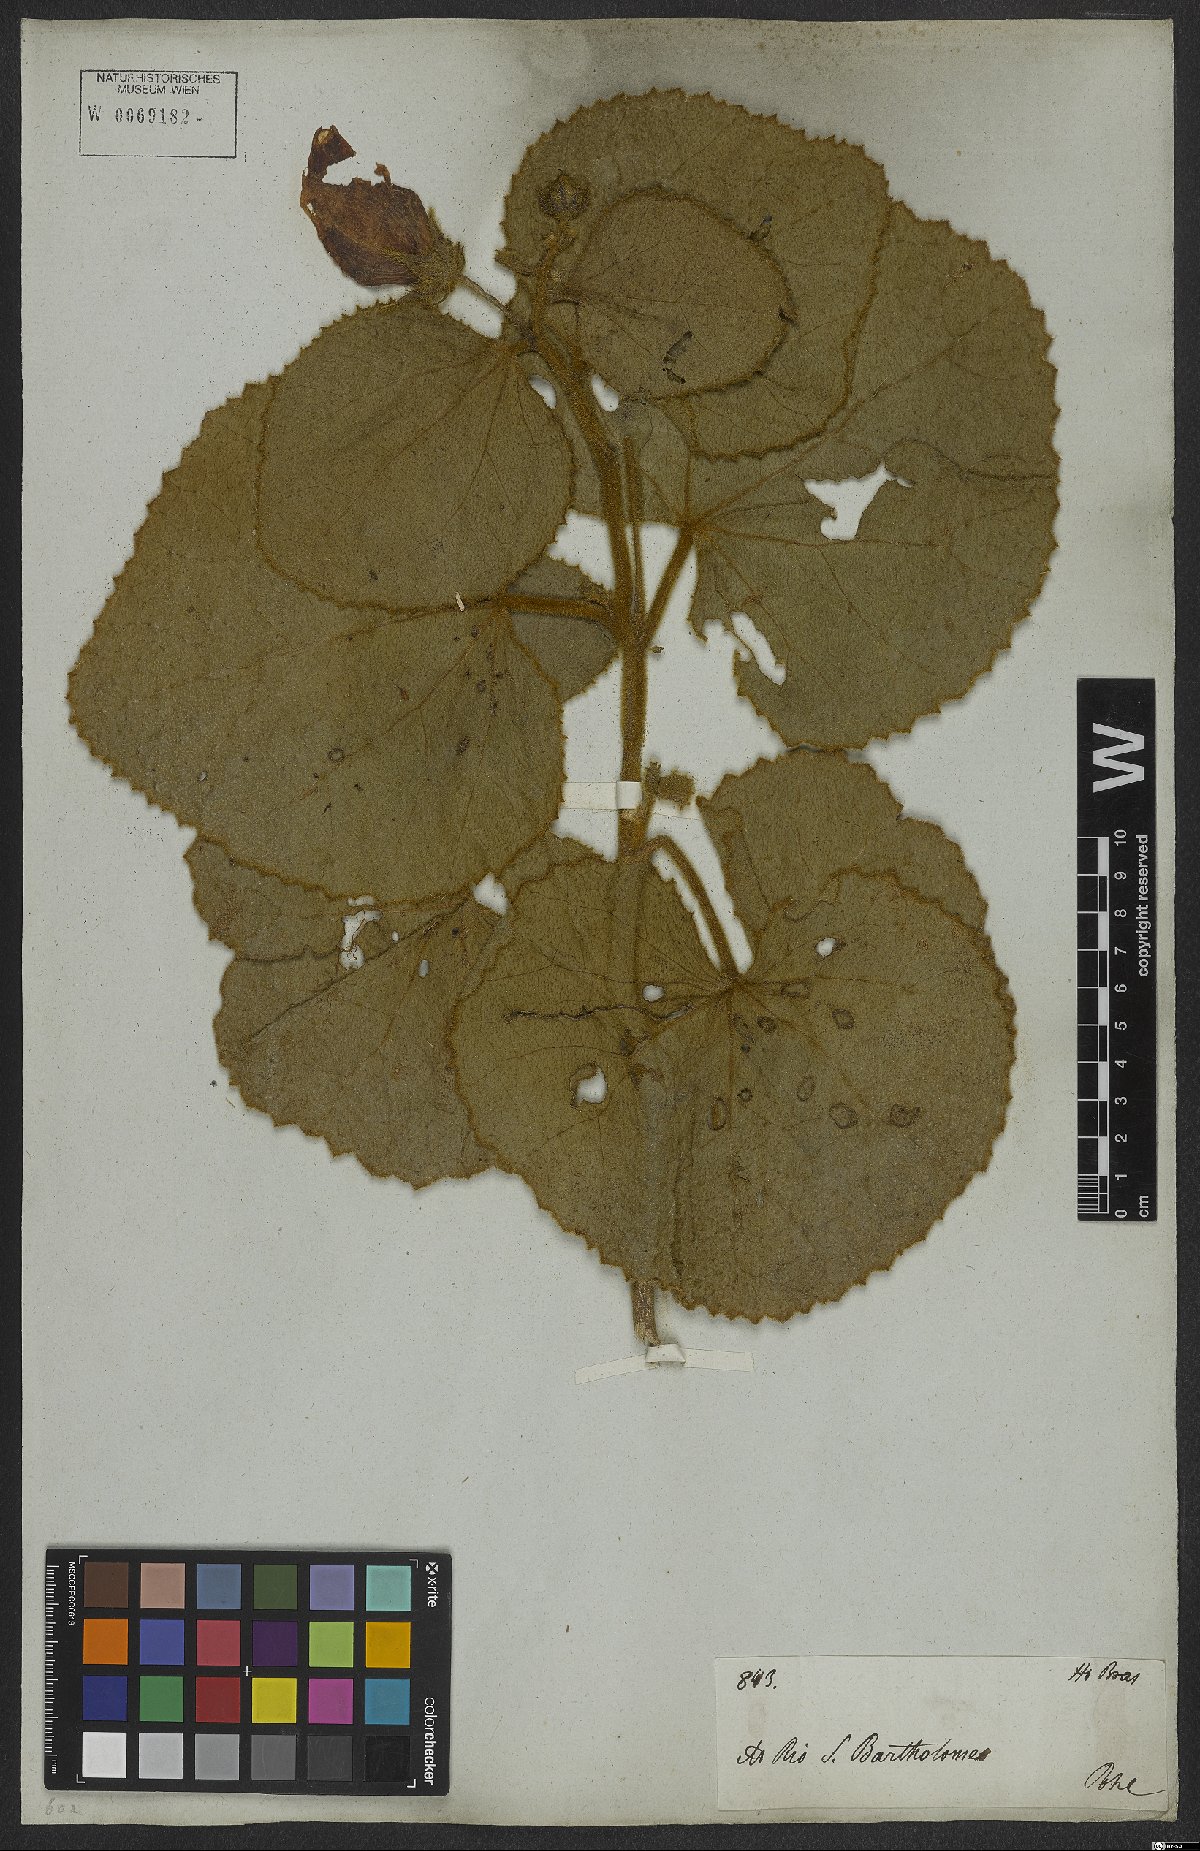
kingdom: Plantae
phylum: Tracheophyta
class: Magnoliopsida
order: Malvales
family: Malvaceae
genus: Hibiscus
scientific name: Hibiscus pohlii
